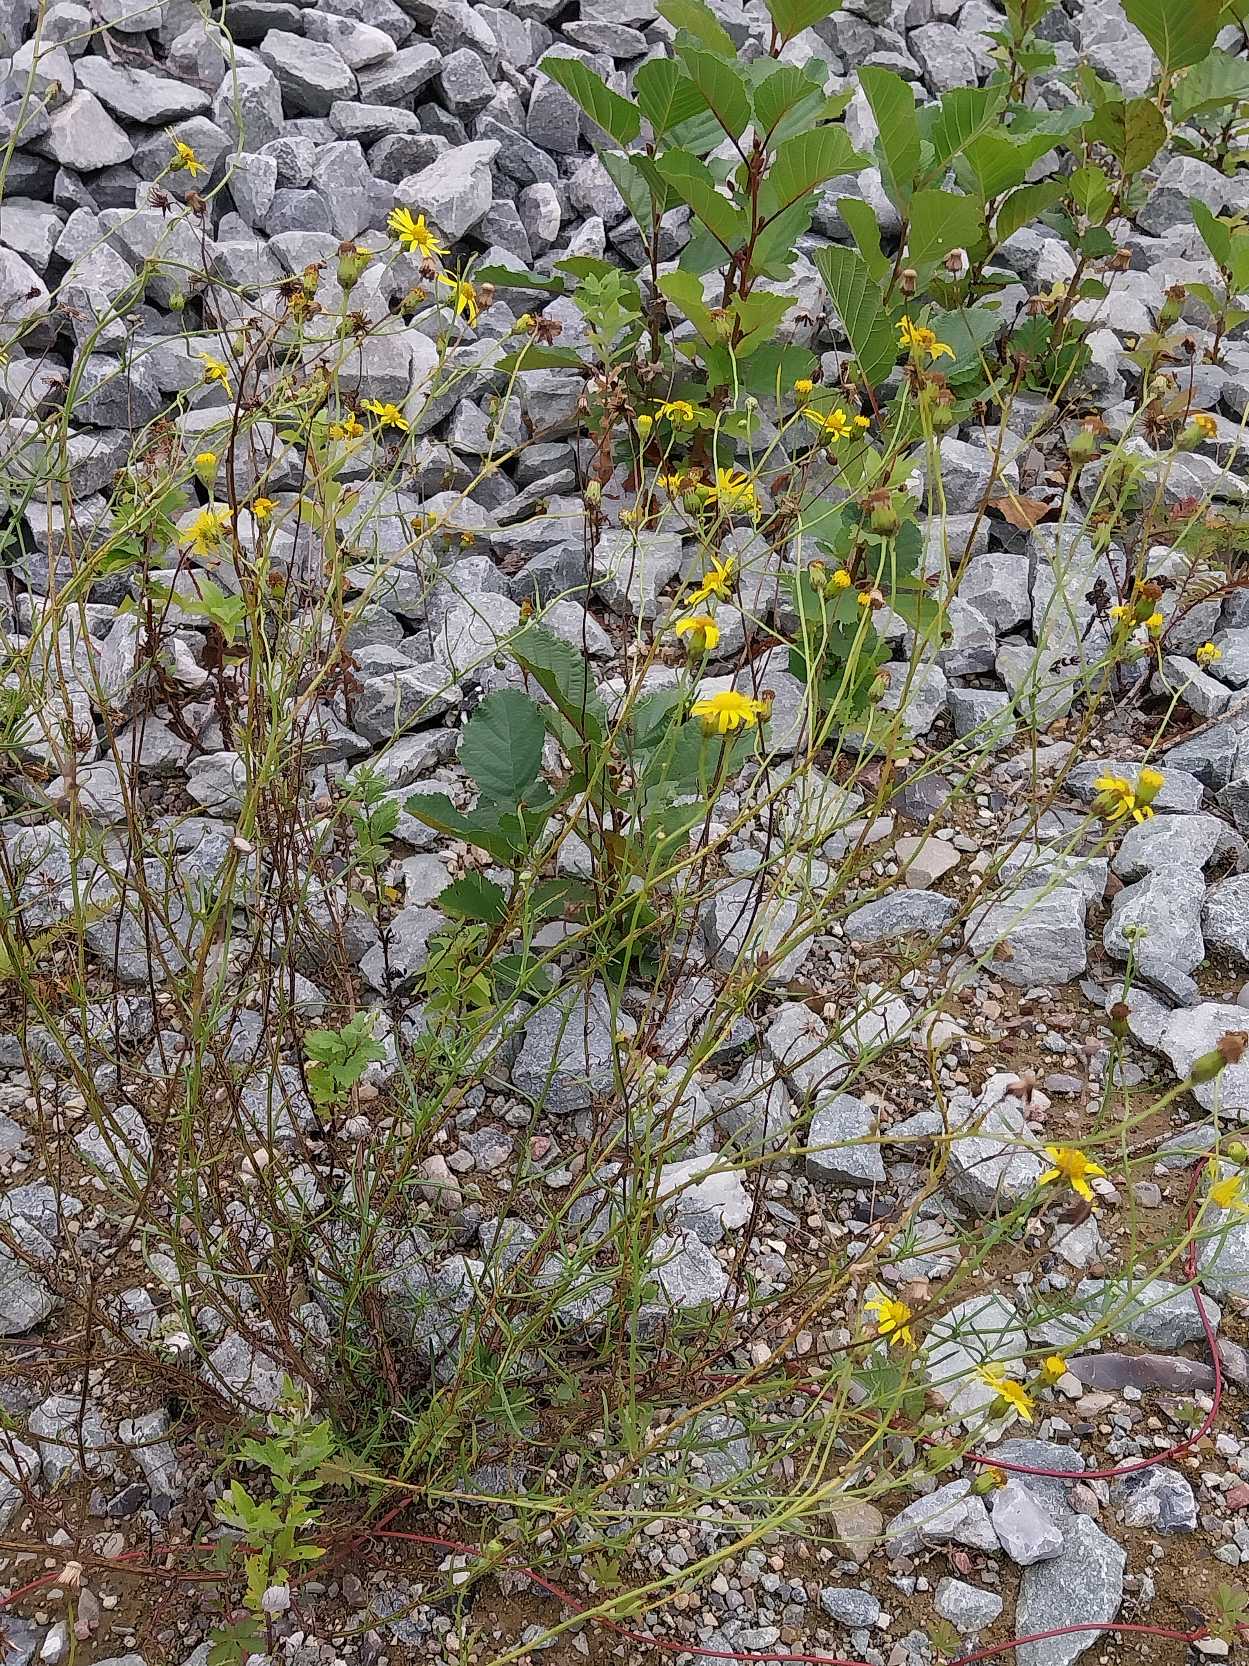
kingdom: Plantae
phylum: Tracheophyta
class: Magnoliopsida
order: Asterales
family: Asteraceae
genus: Senecio
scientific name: Senecio inaequidens
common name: Smalbladet brandbæger
